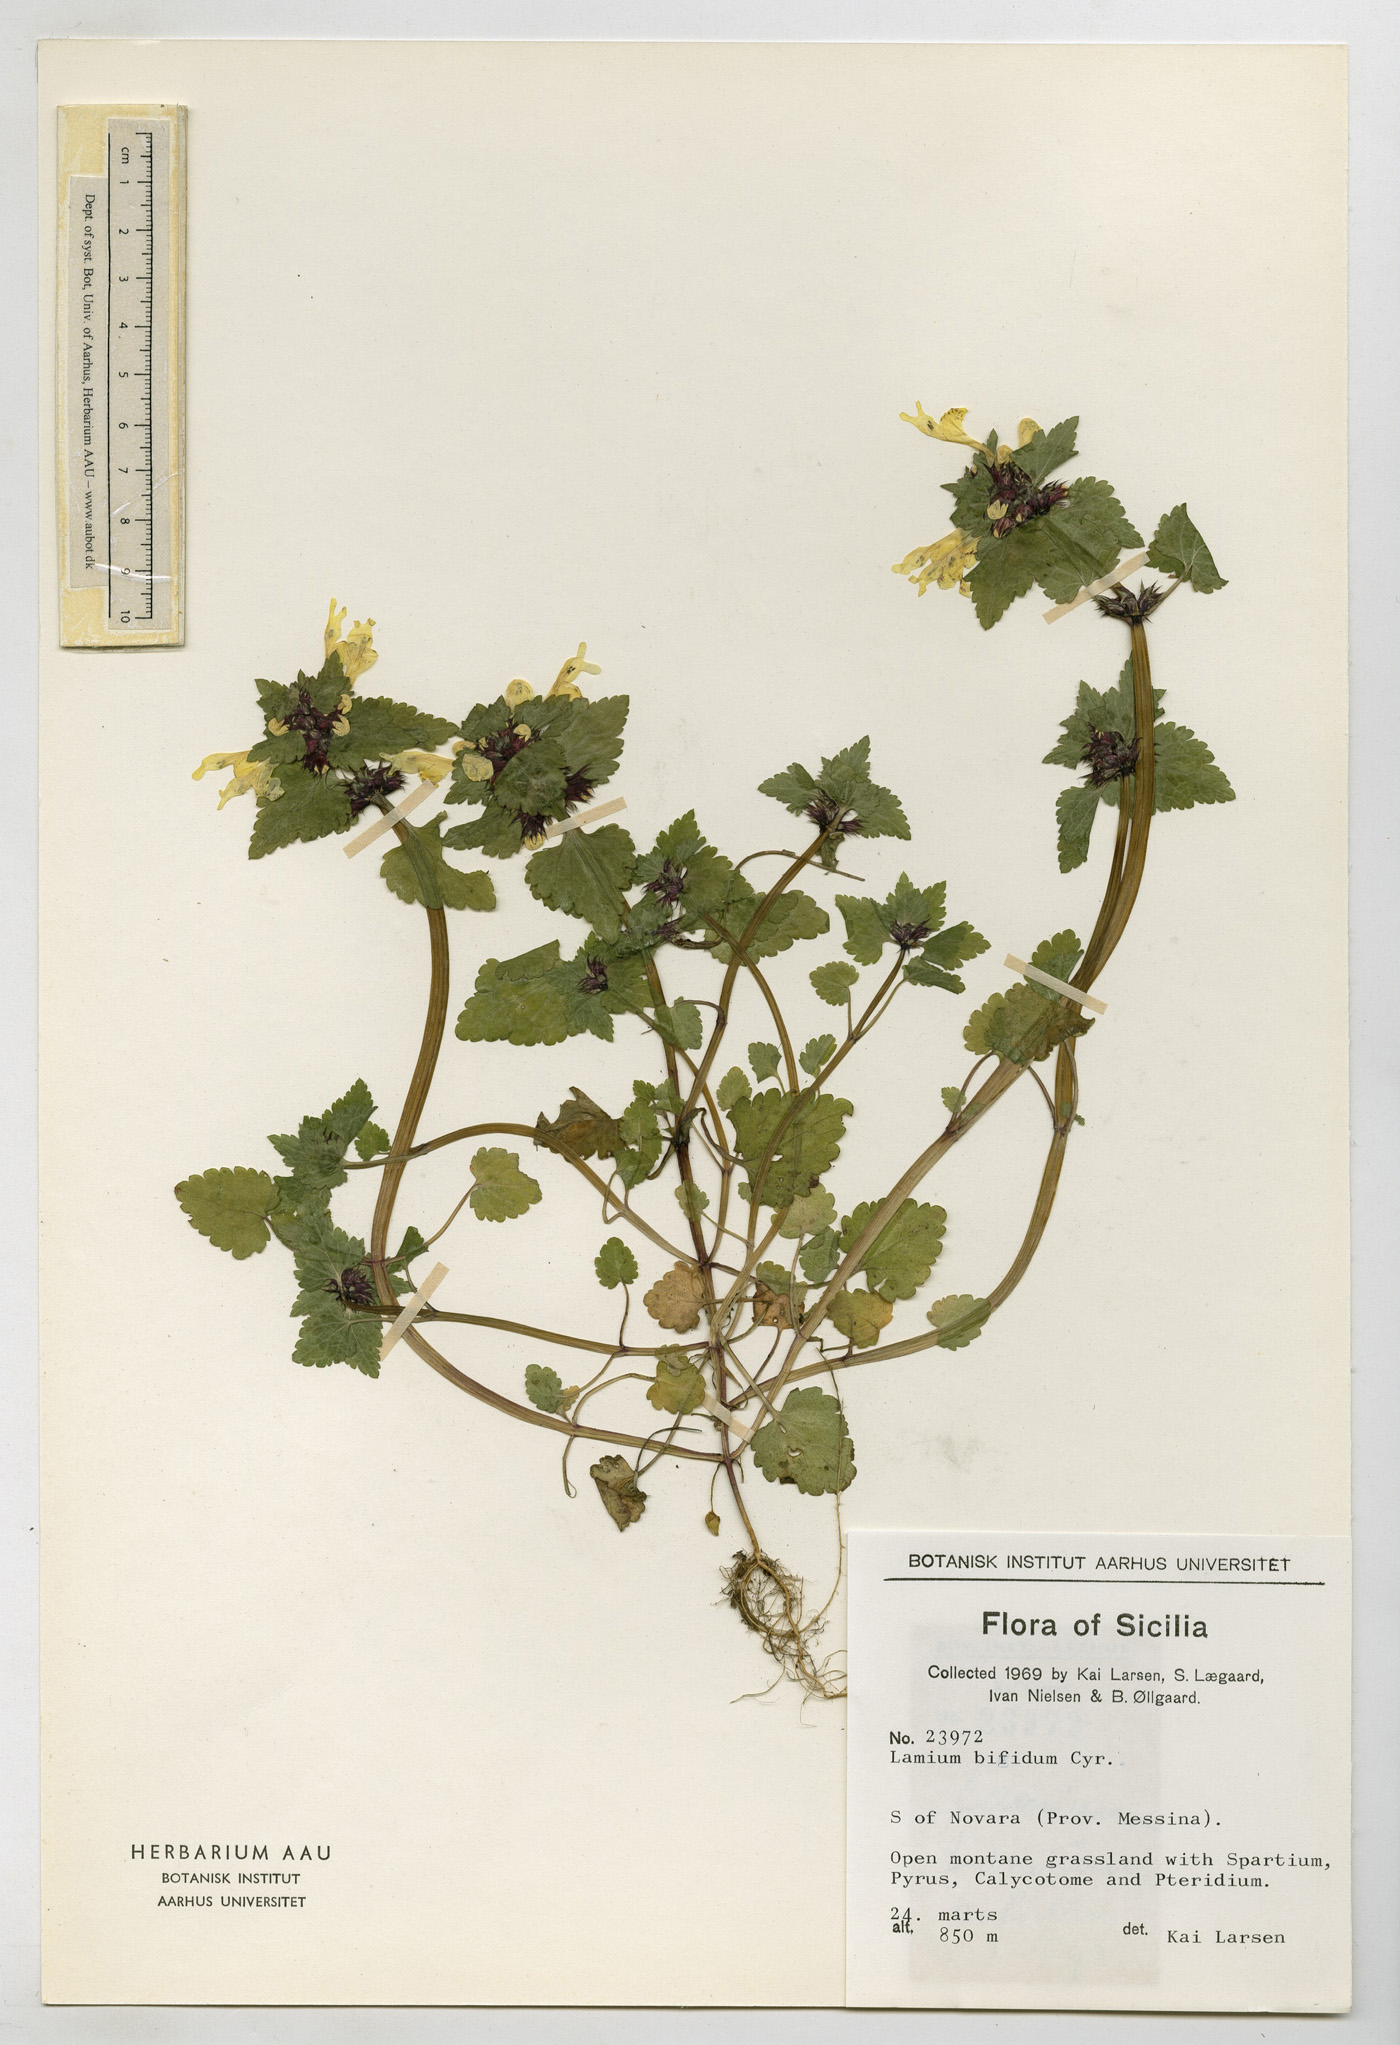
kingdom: Plantae
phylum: Tracheophyta
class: Magnoliopsida
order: Lamiales
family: Lamiaceae
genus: Lamium
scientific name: Lamium bifidum
